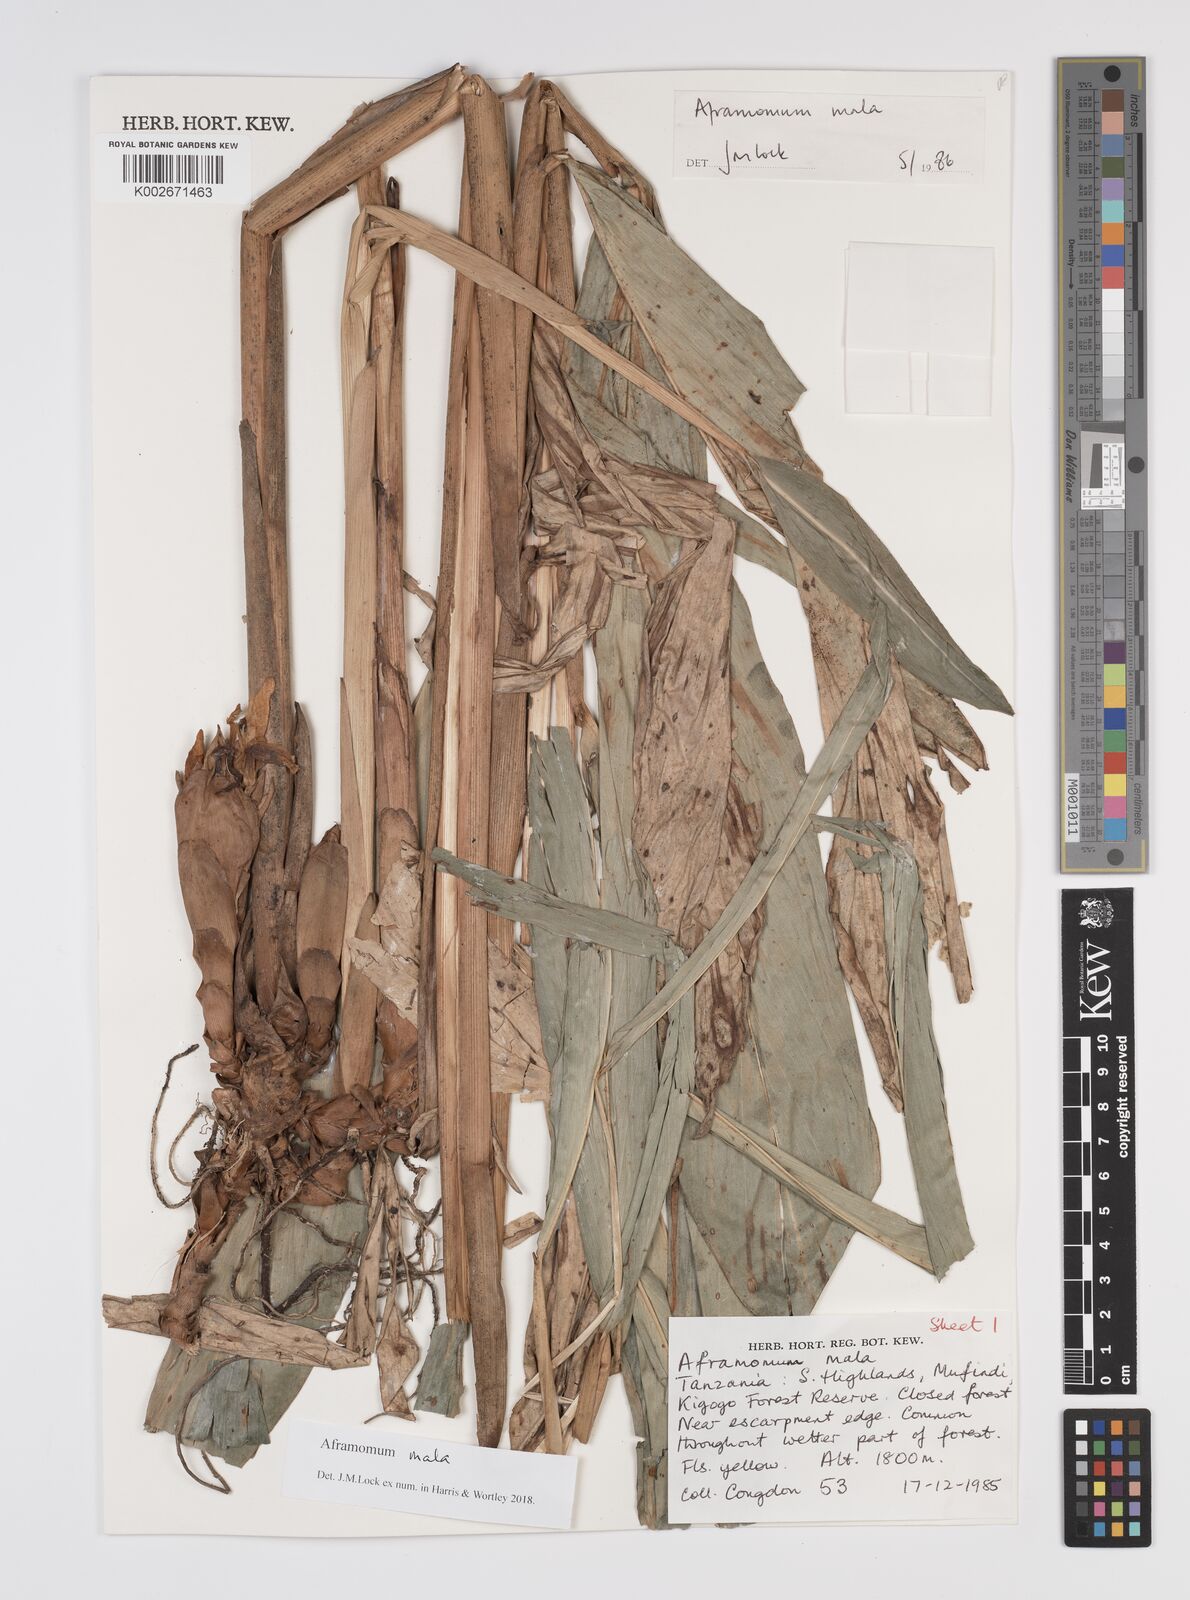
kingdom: Plantae
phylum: Tracheophyta
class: Liliopsida
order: Zingiberales
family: Zingiberaceae
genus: Aframomum
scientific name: Aframomum mala
